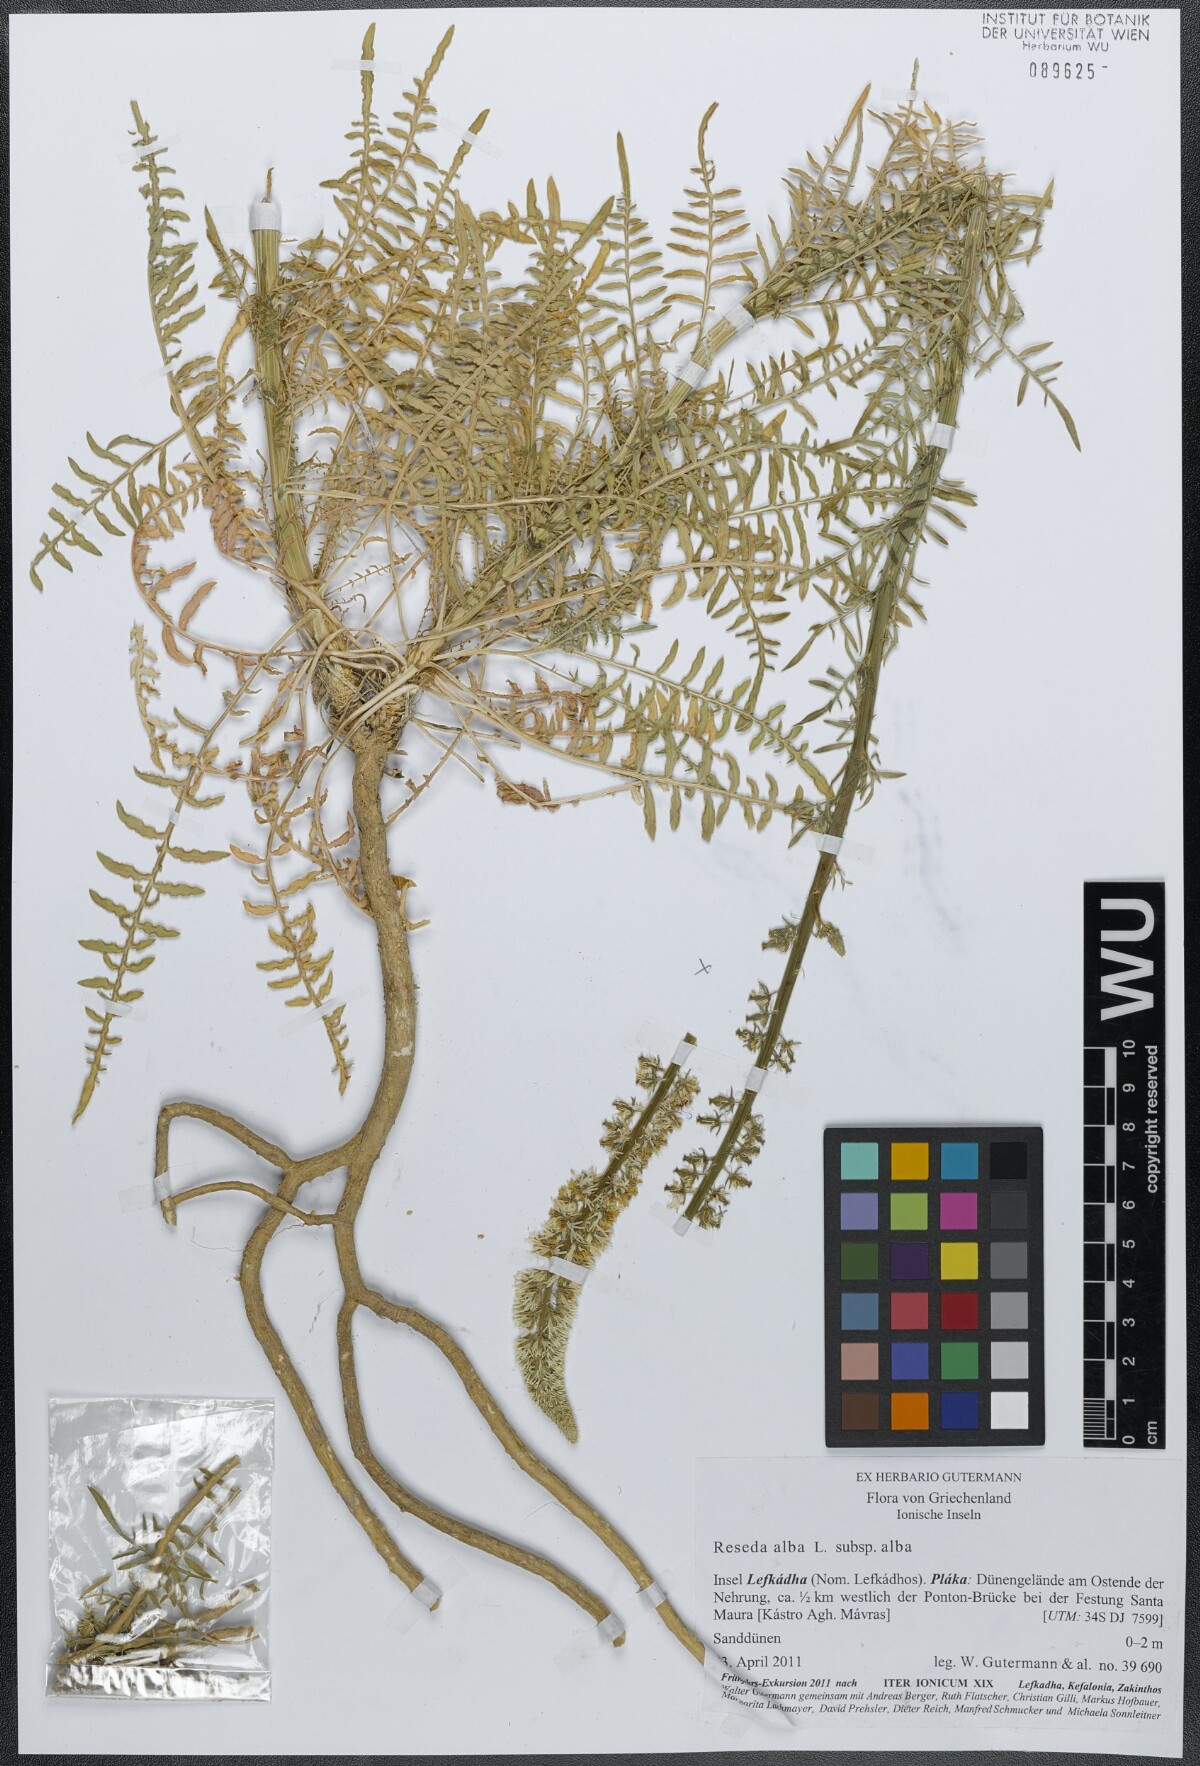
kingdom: Plantae
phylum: Tracheophyta
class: Magnoliopsida
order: Brassicales
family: Resedaceae
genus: Reseda
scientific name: Reseda alba
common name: White mignonette
